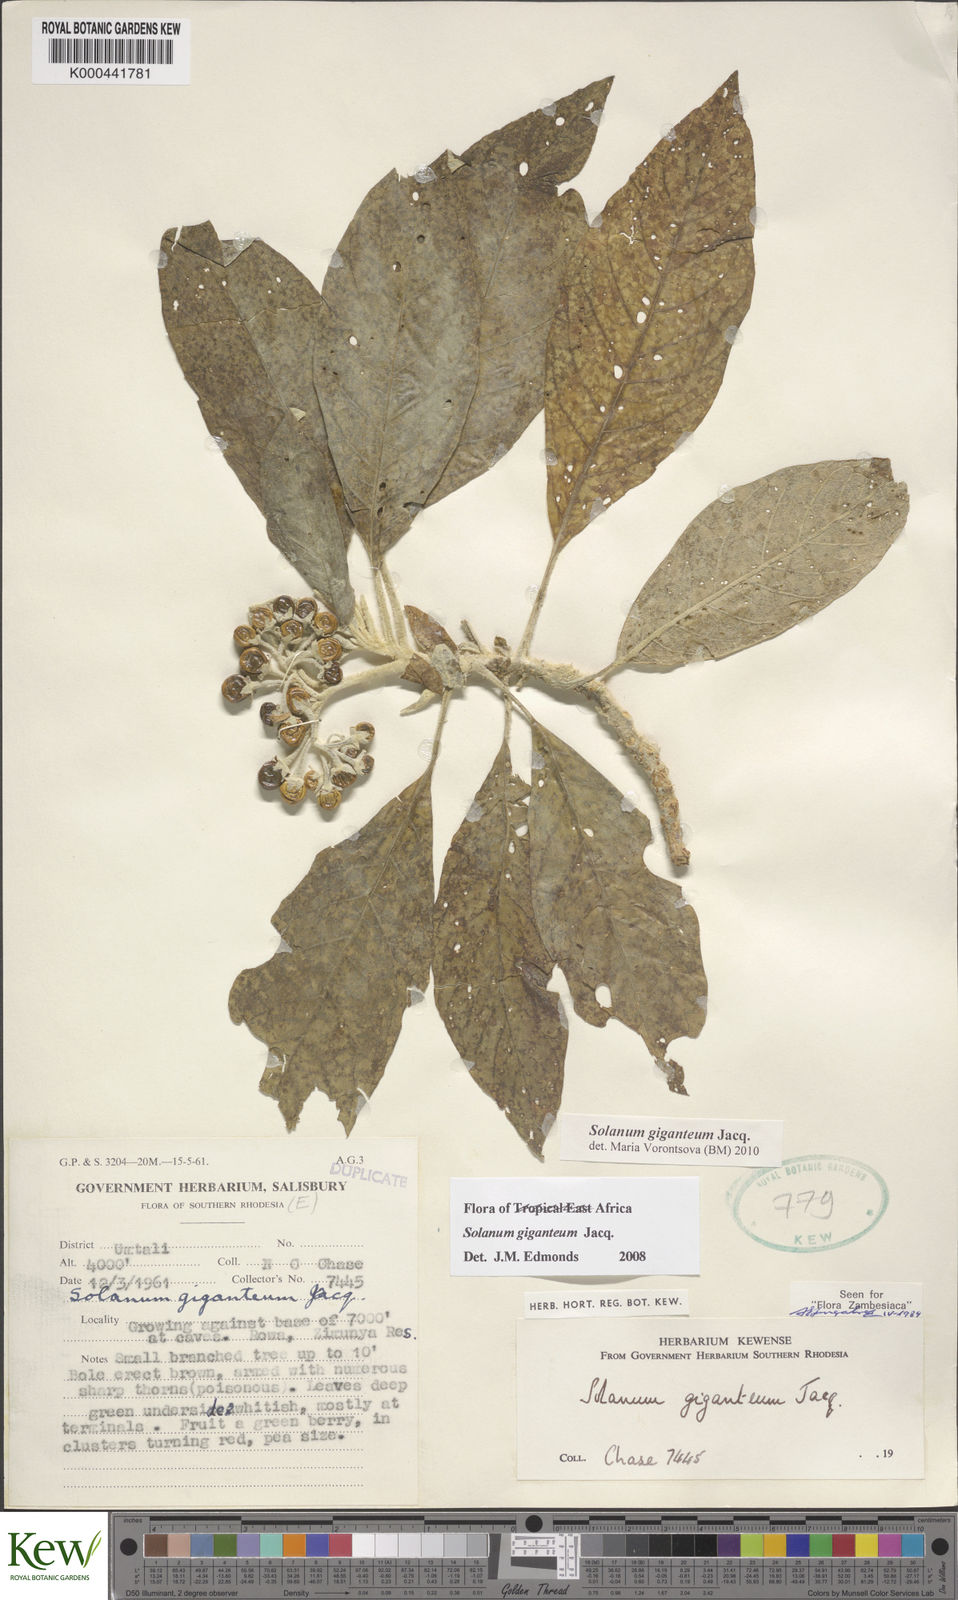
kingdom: Plantae
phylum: Tracheophyta
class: Magnoliopsida
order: Solanales
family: Solanaceae
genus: Solanum
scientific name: Solanum giganteum
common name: Healing-leaf-tree
